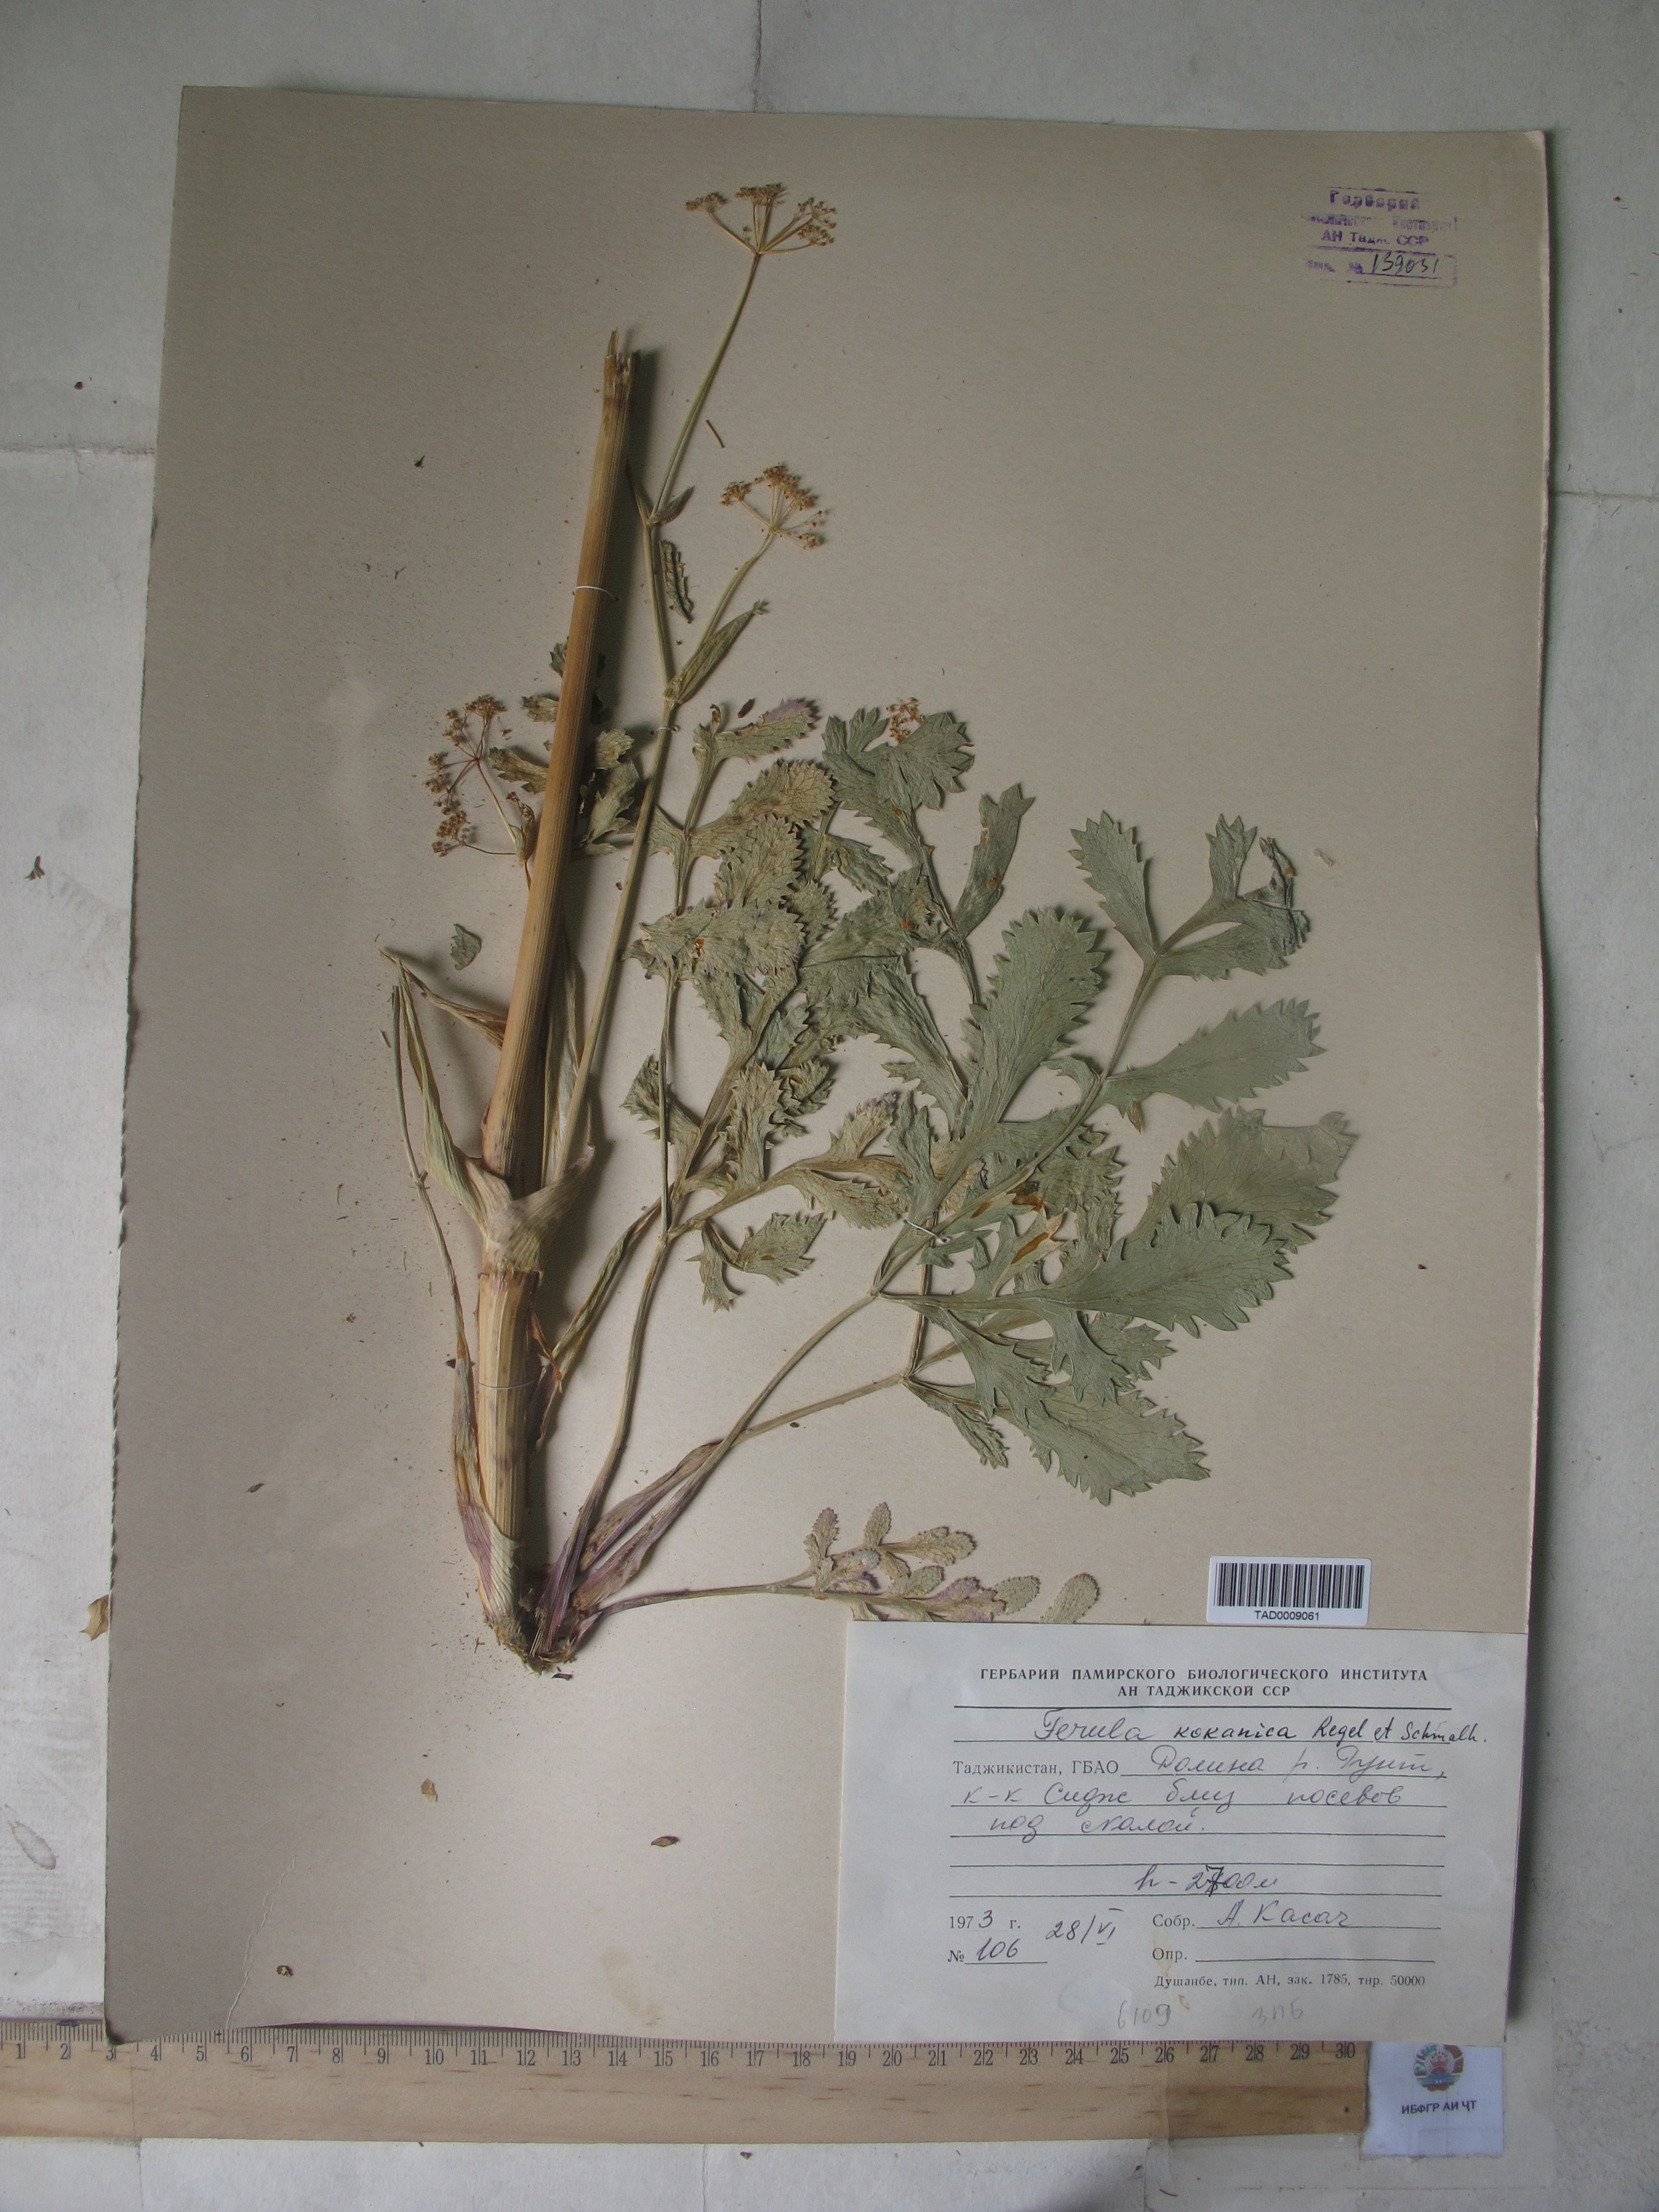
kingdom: Plantae
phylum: Tracheophyta
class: Magnoliopsida
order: Apiales
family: Apiaceae
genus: Ferula
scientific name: Ferula kokanica
